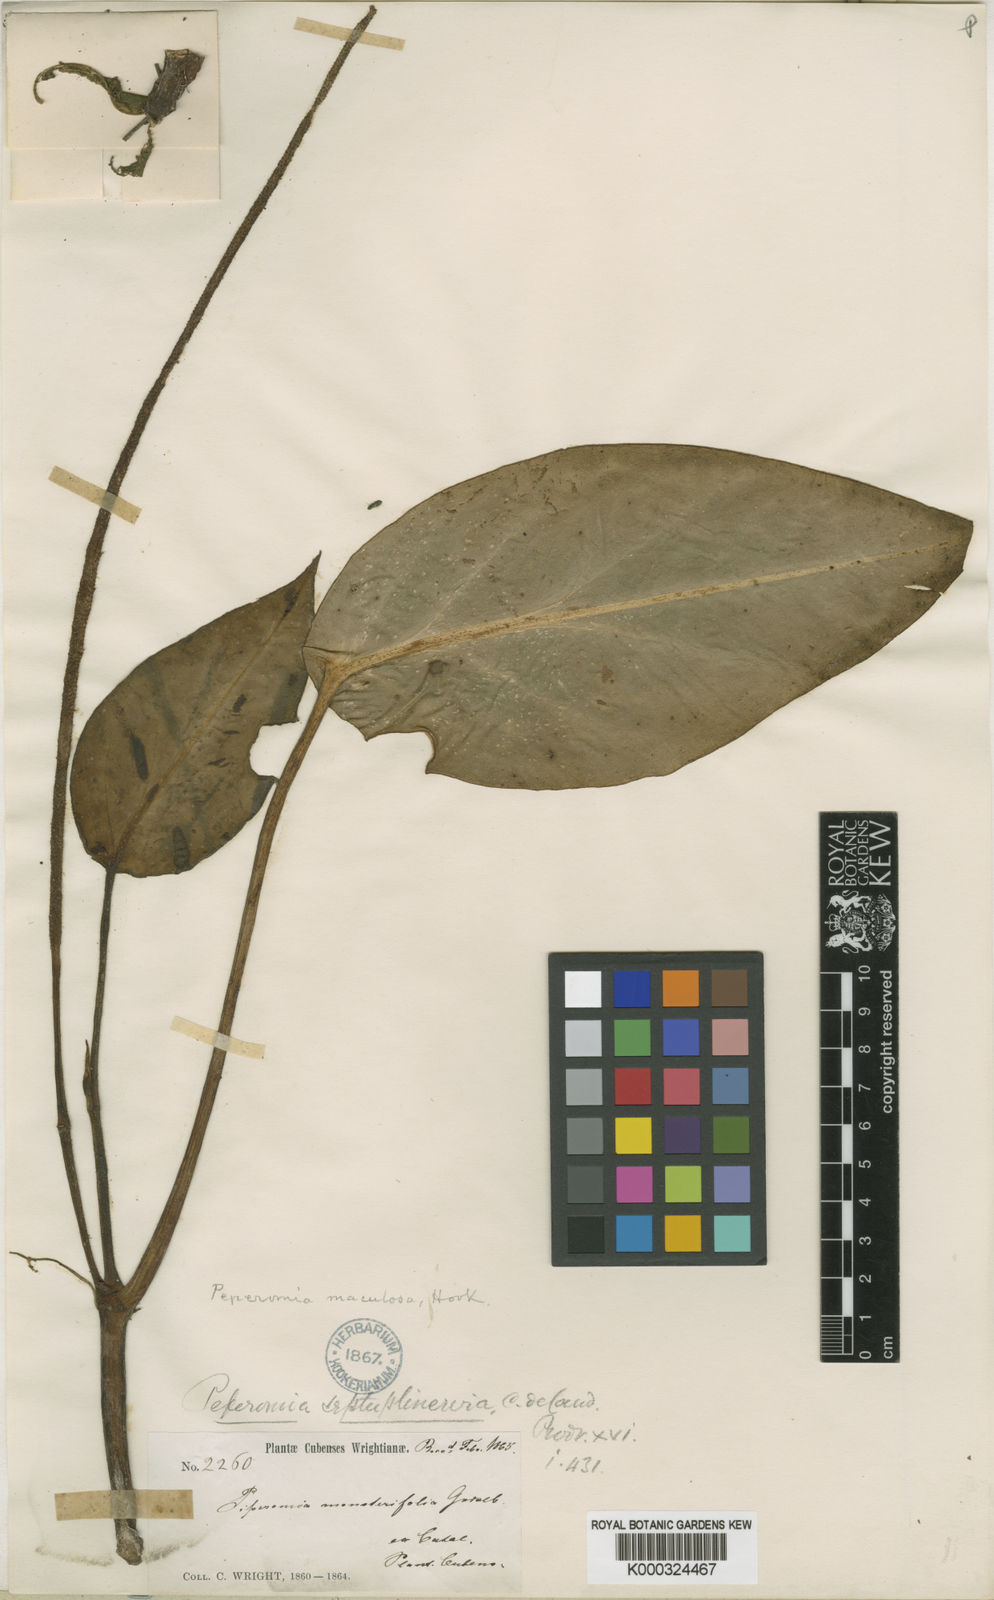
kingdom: Plantae
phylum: Tracheophyta
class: Magnoliopsida
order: Piperales
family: Piperaceae
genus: Peperomia
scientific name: Peperomia maculosa
